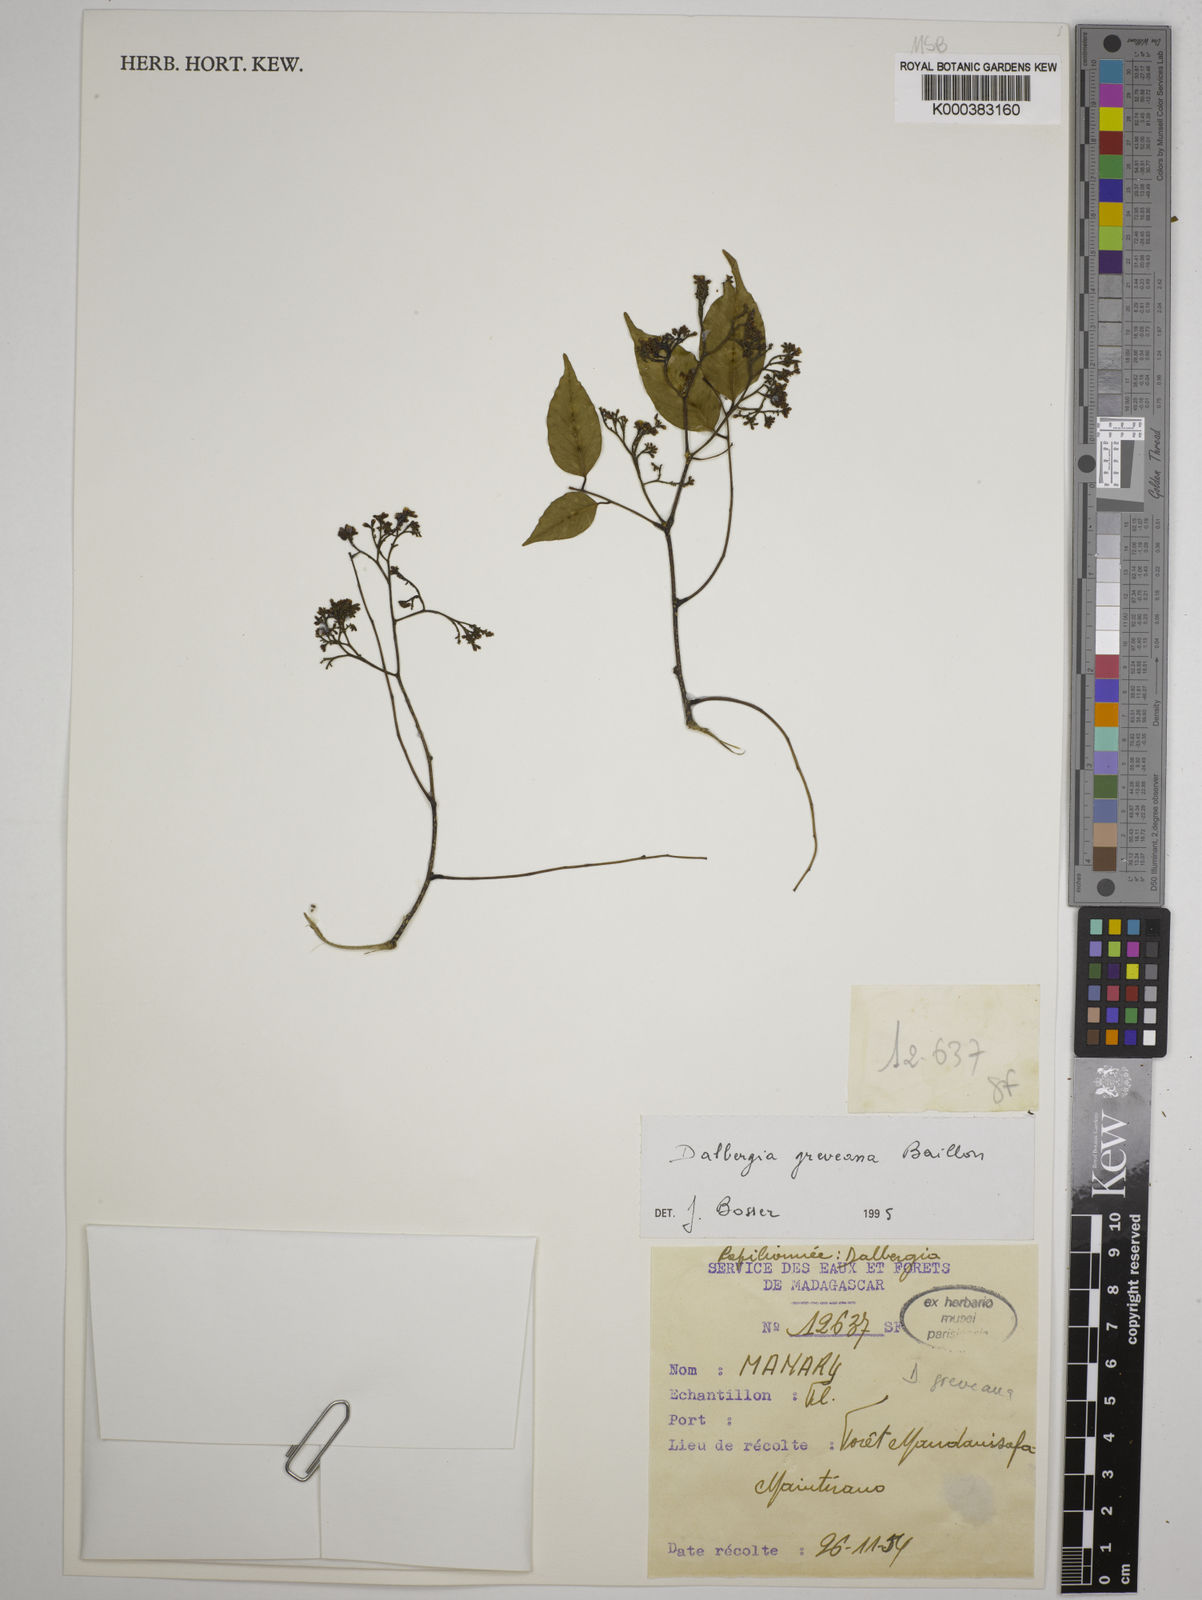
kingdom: Plantae
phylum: Tracheophyta
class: Magnoliopsida
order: Fabales
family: Fabaceae
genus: Dalbergia
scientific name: Dalbergia greveana
